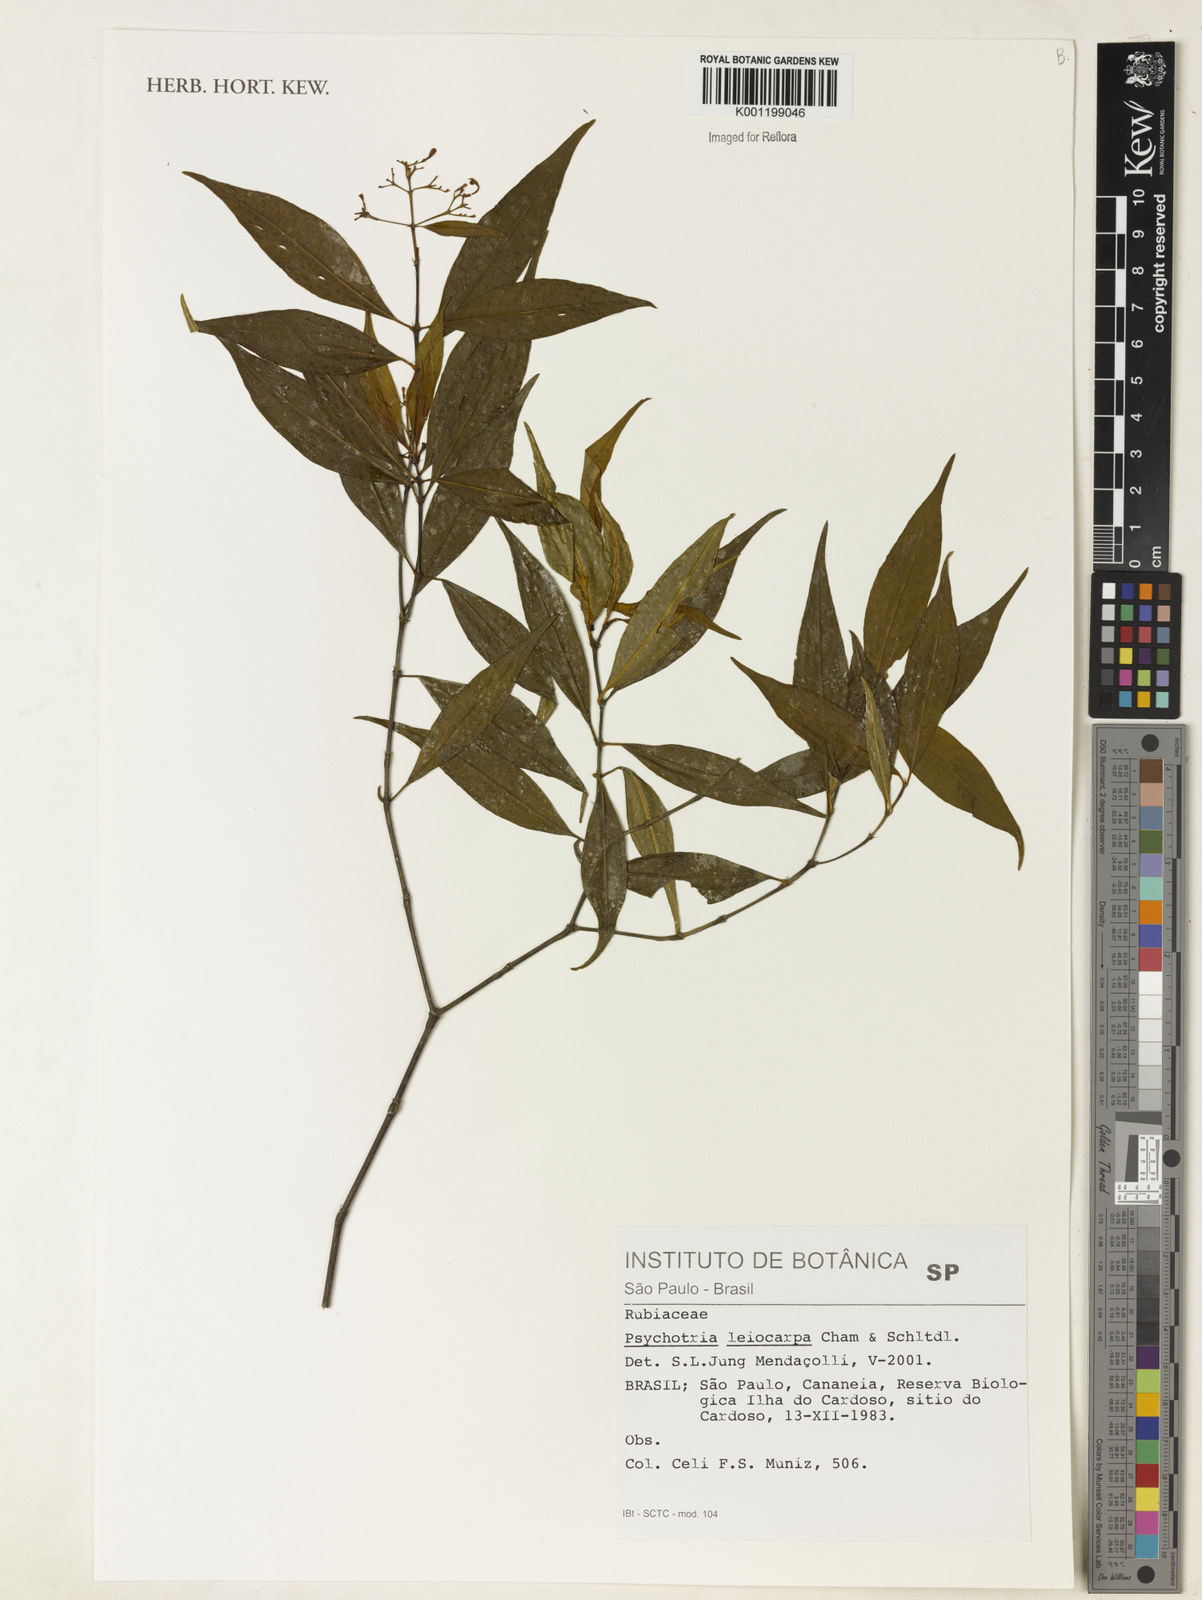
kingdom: Plantae
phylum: Tracheophyta
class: Magnoliopsida
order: Gentianales
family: Rubiaceae
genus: Psychotria
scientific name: Psychotria leiocarpa
